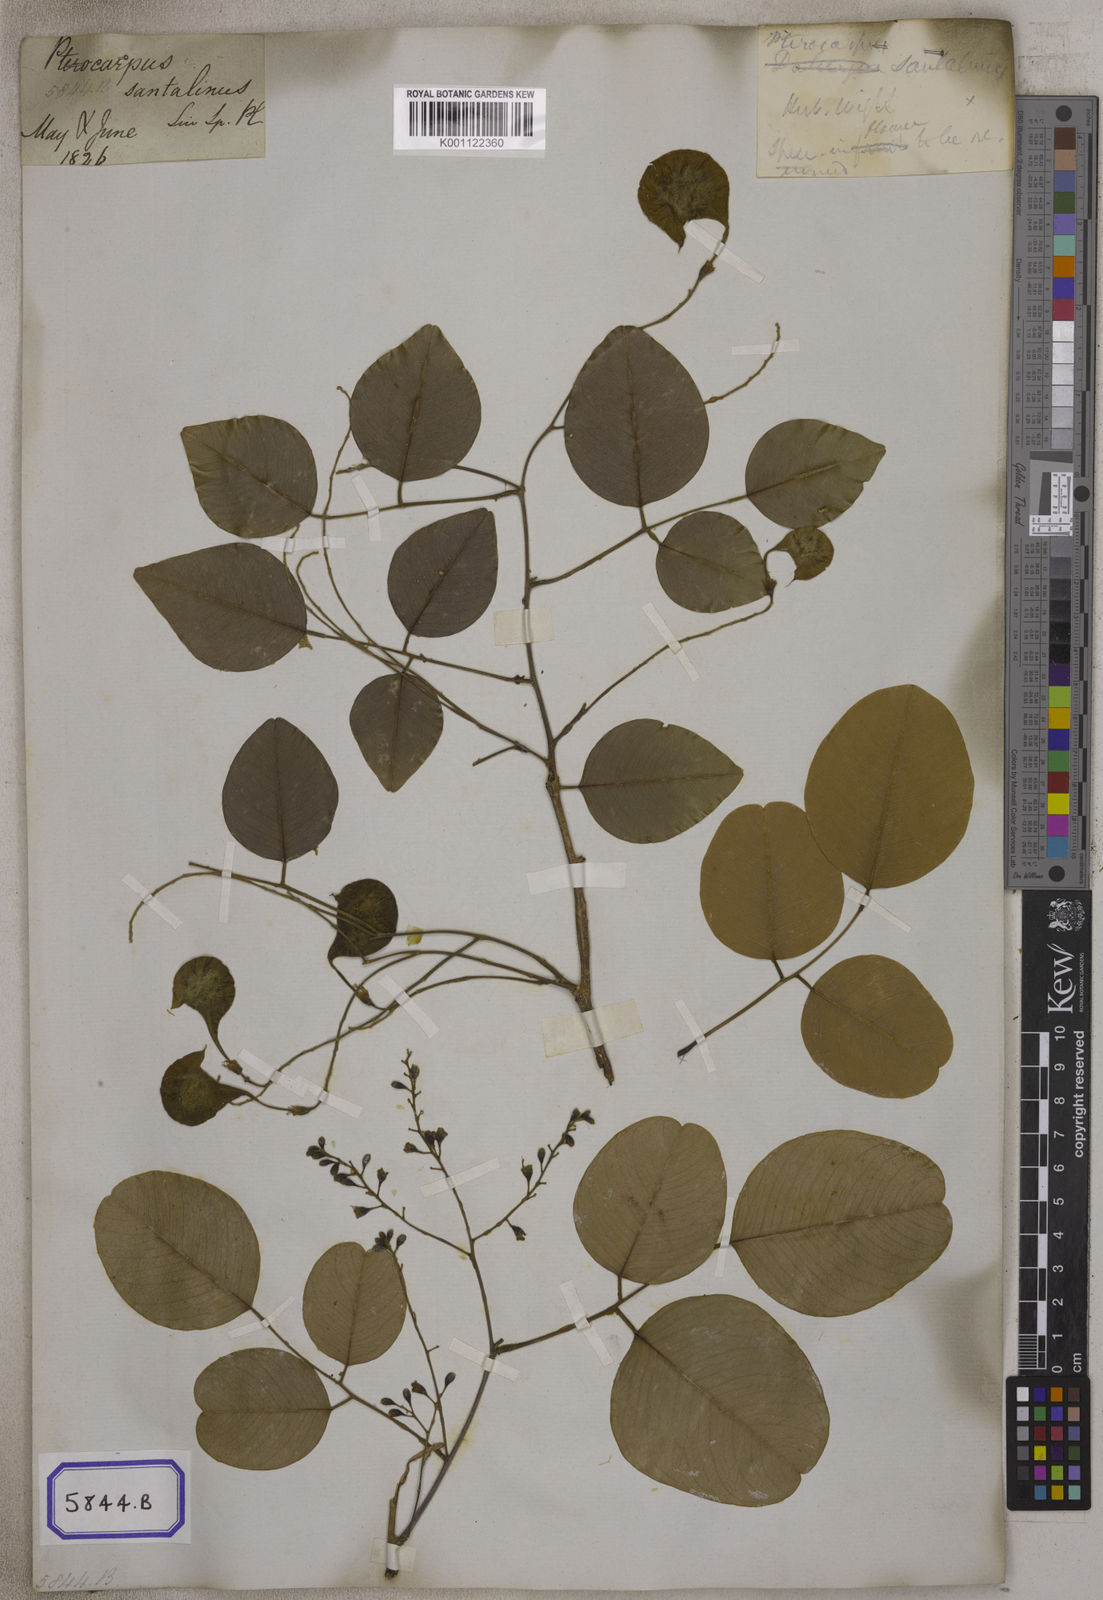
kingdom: Plantae
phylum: Tracheophyta
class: Magnoliopsida
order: Fabales
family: Fabaceae
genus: Derris
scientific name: Derris canarensis
